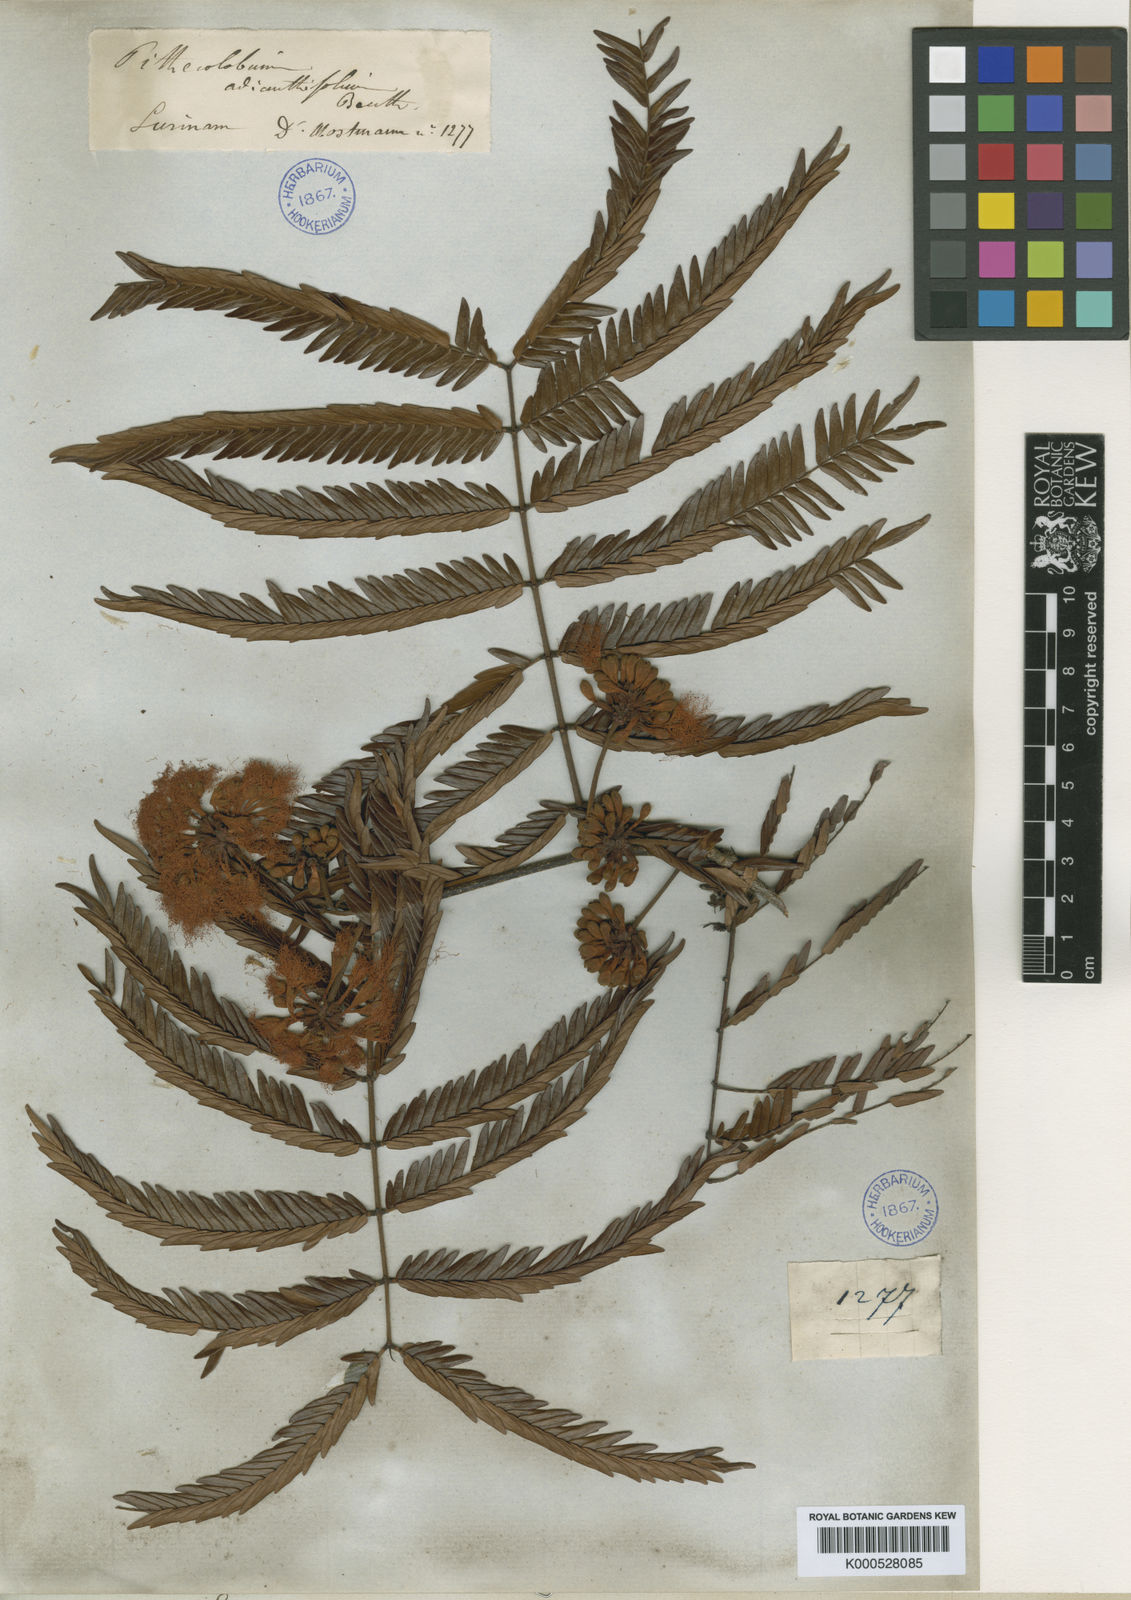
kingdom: Plantae
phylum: Tracheophyta
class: Magnoliopsida
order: Fabales
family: Fabaceae
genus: Macrosamanea
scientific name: Macrosamanea pubiramea
